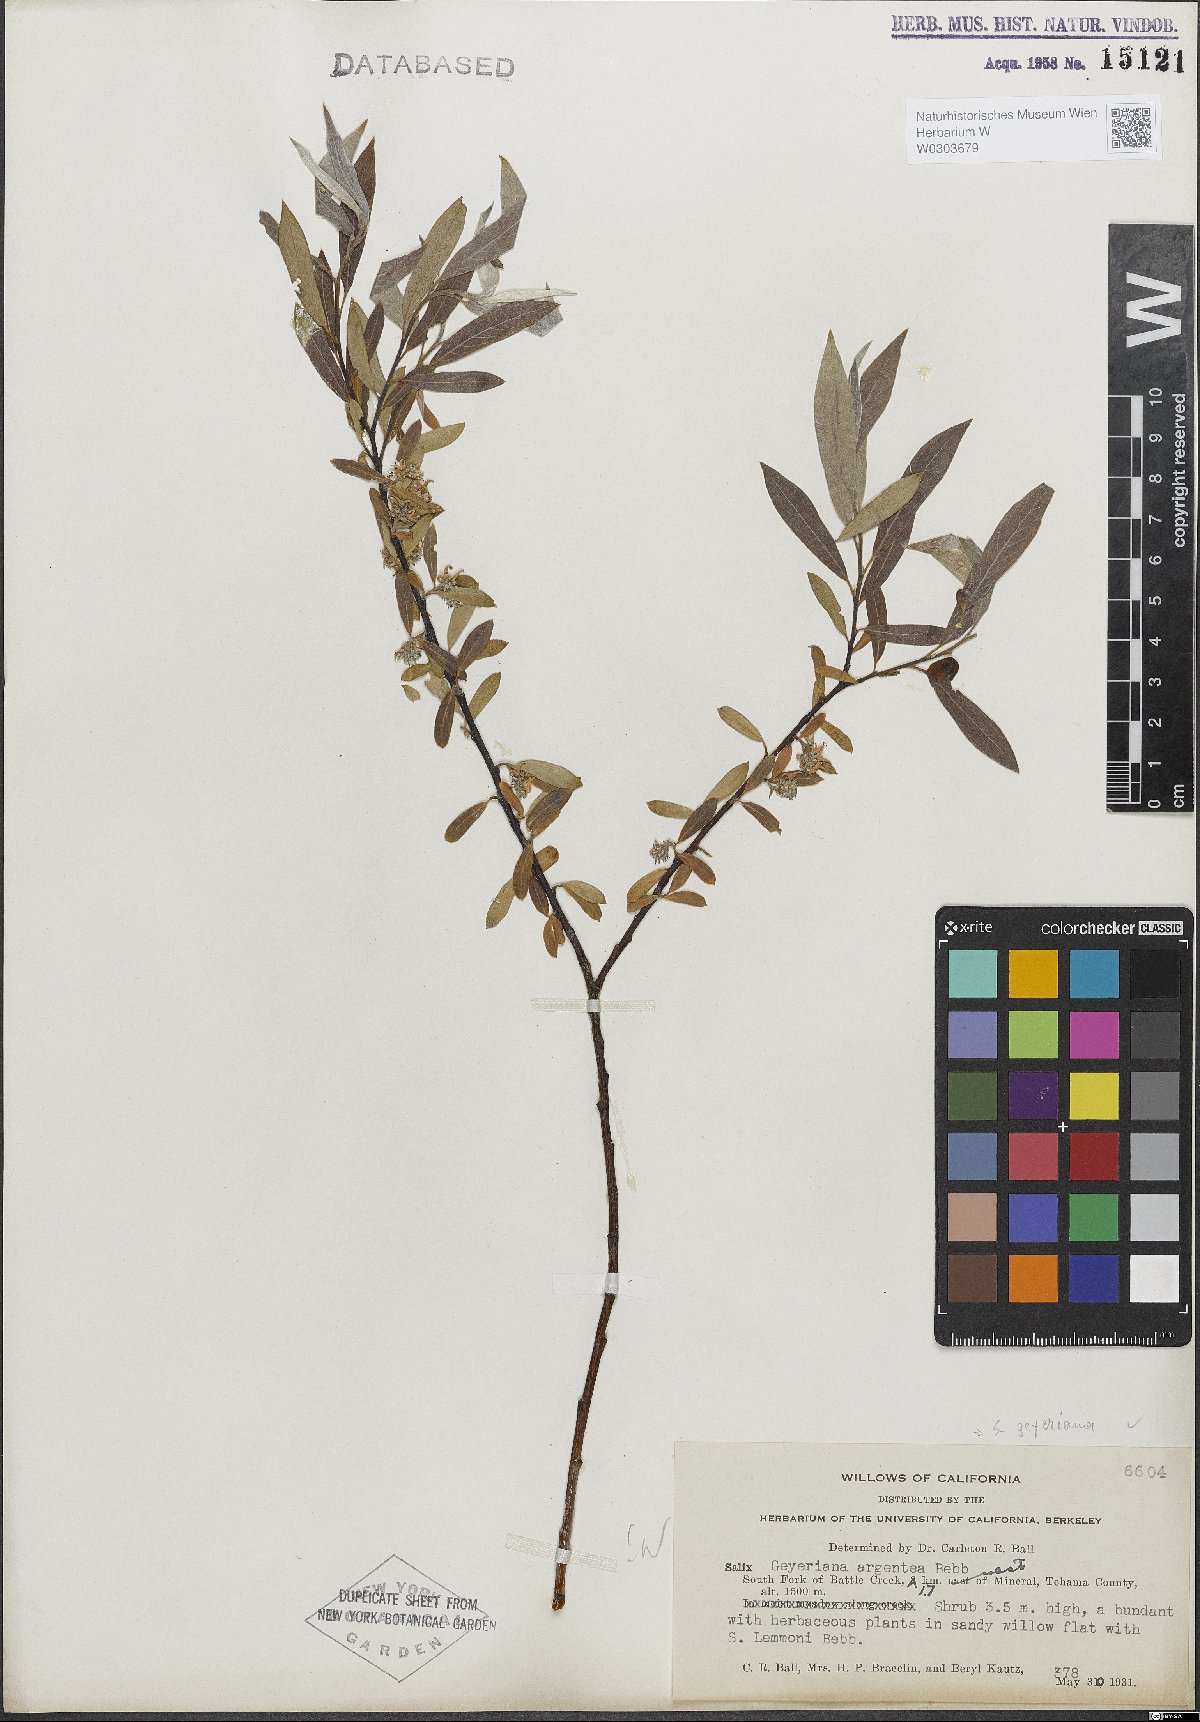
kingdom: Plantae
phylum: Tracheophyta
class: Magnoliopsida
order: Malpighiales
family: Salicaceae
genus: Salix
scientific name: Salix geyeriana
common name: Geyer's willow
